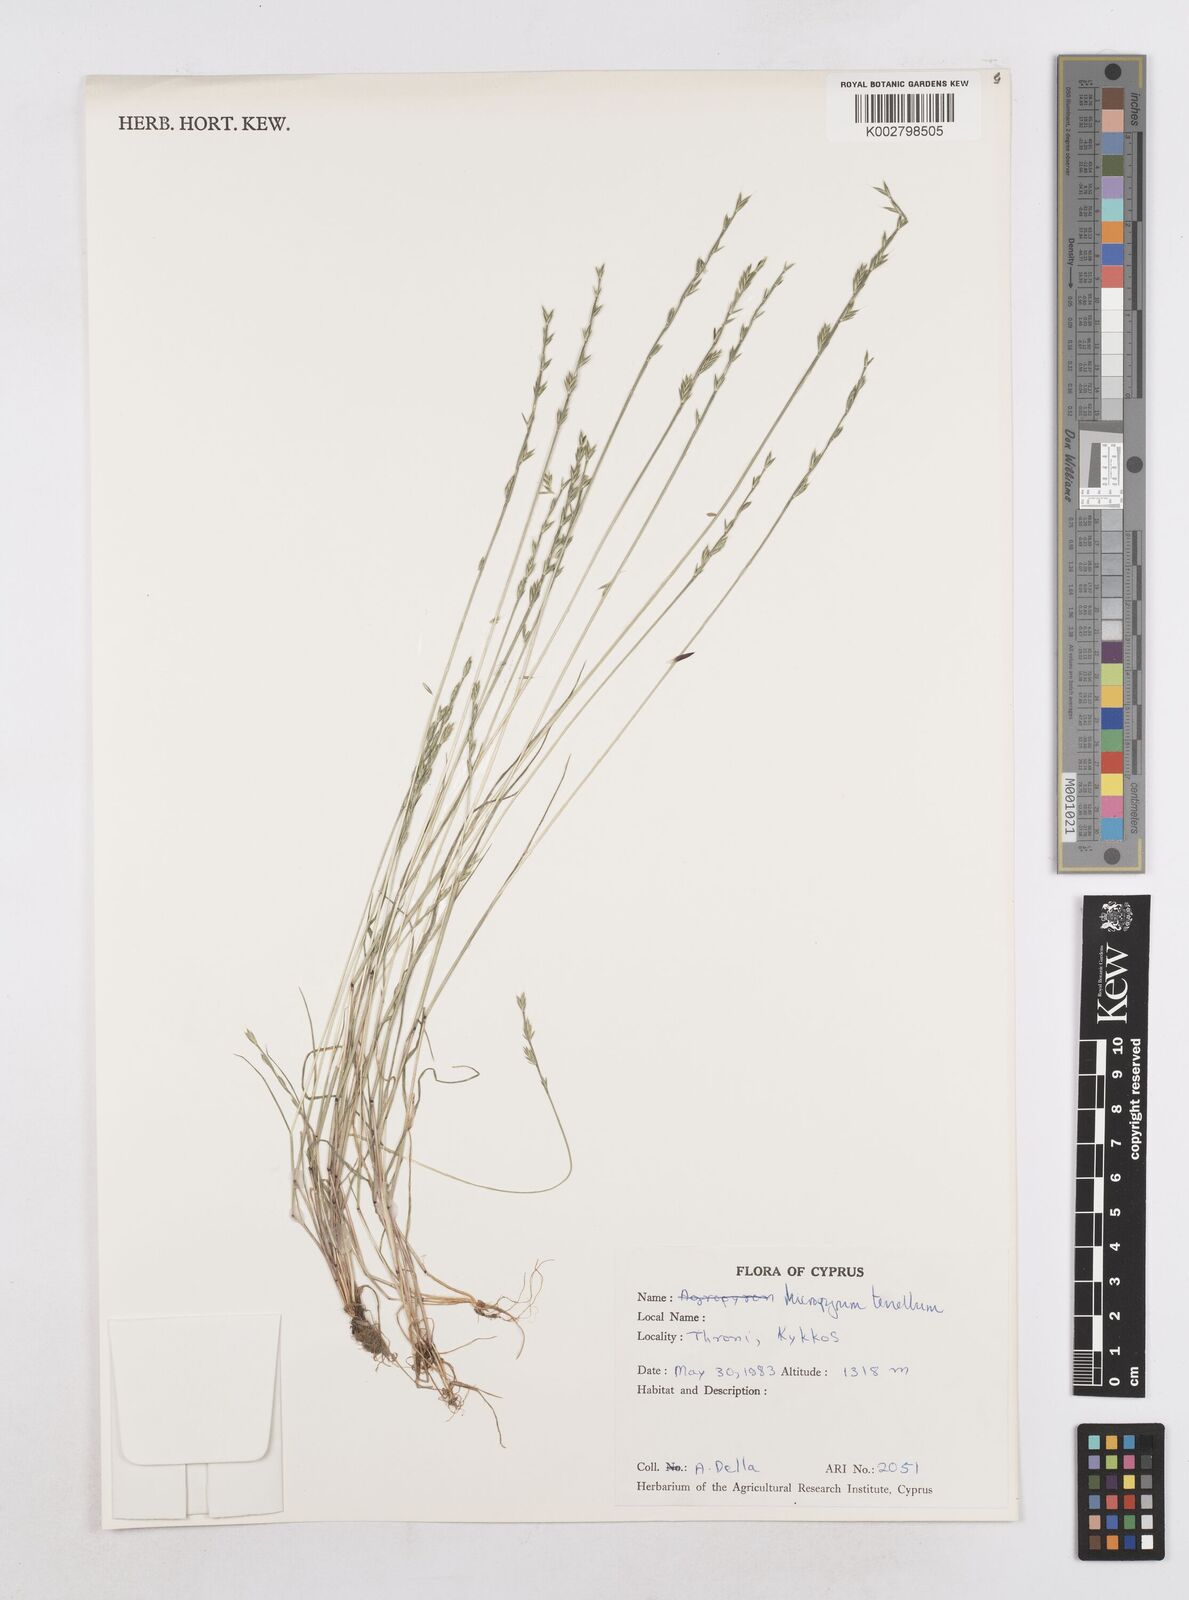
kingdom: Plantae
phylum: Tracheophyta
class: Liliopsida
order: Poales
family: Poaceae
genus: Festuca
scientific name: Festuca lachenalii
